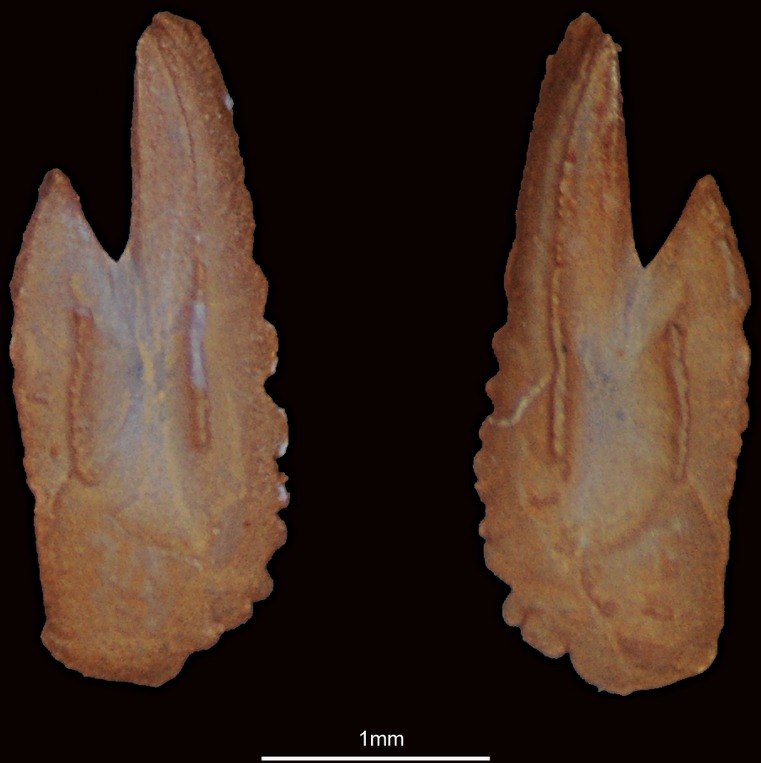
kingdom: Animalia
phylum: Chordata
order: Clupeiformes
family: Clupeidae
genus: Sardinella
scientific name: Sardinella longiceps
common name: Indian oil sardine
